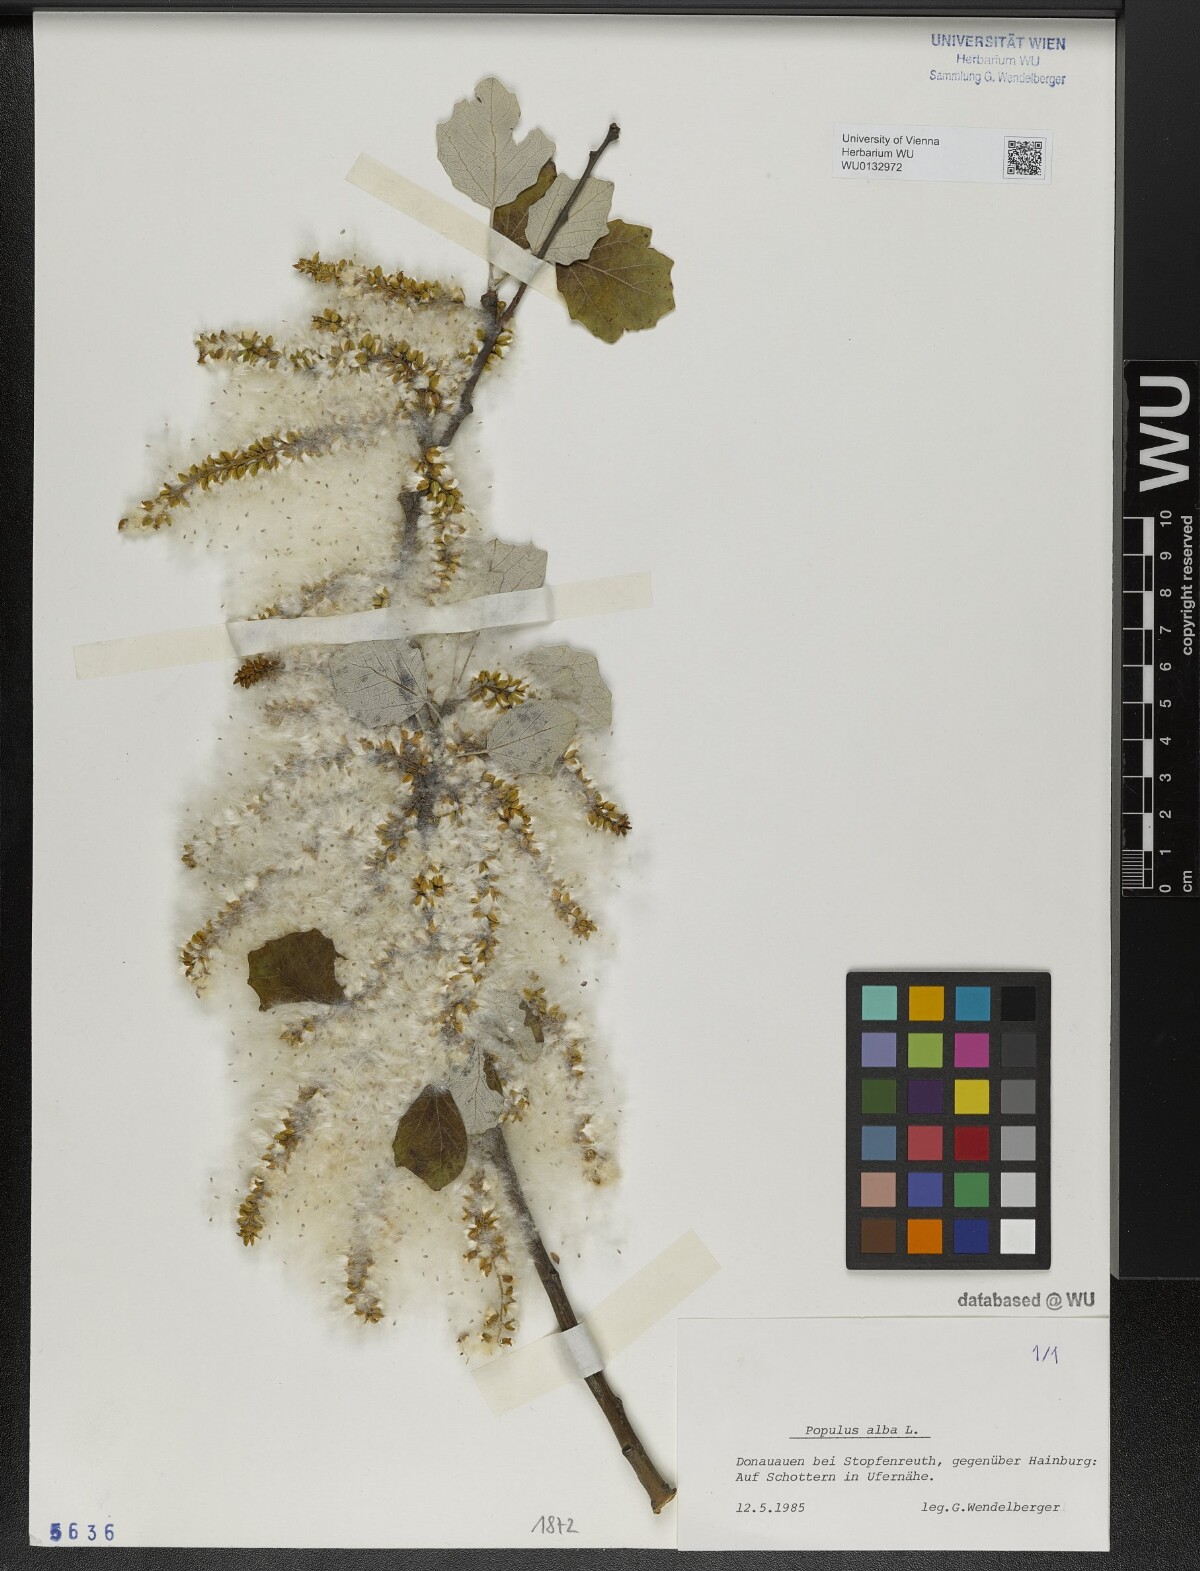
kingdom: Plantae
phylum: Tracheophyta
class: Magnoliopsida
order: Malpighiales
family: Salicaceae
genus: Populus
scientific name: Populus alba
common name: White poplar
